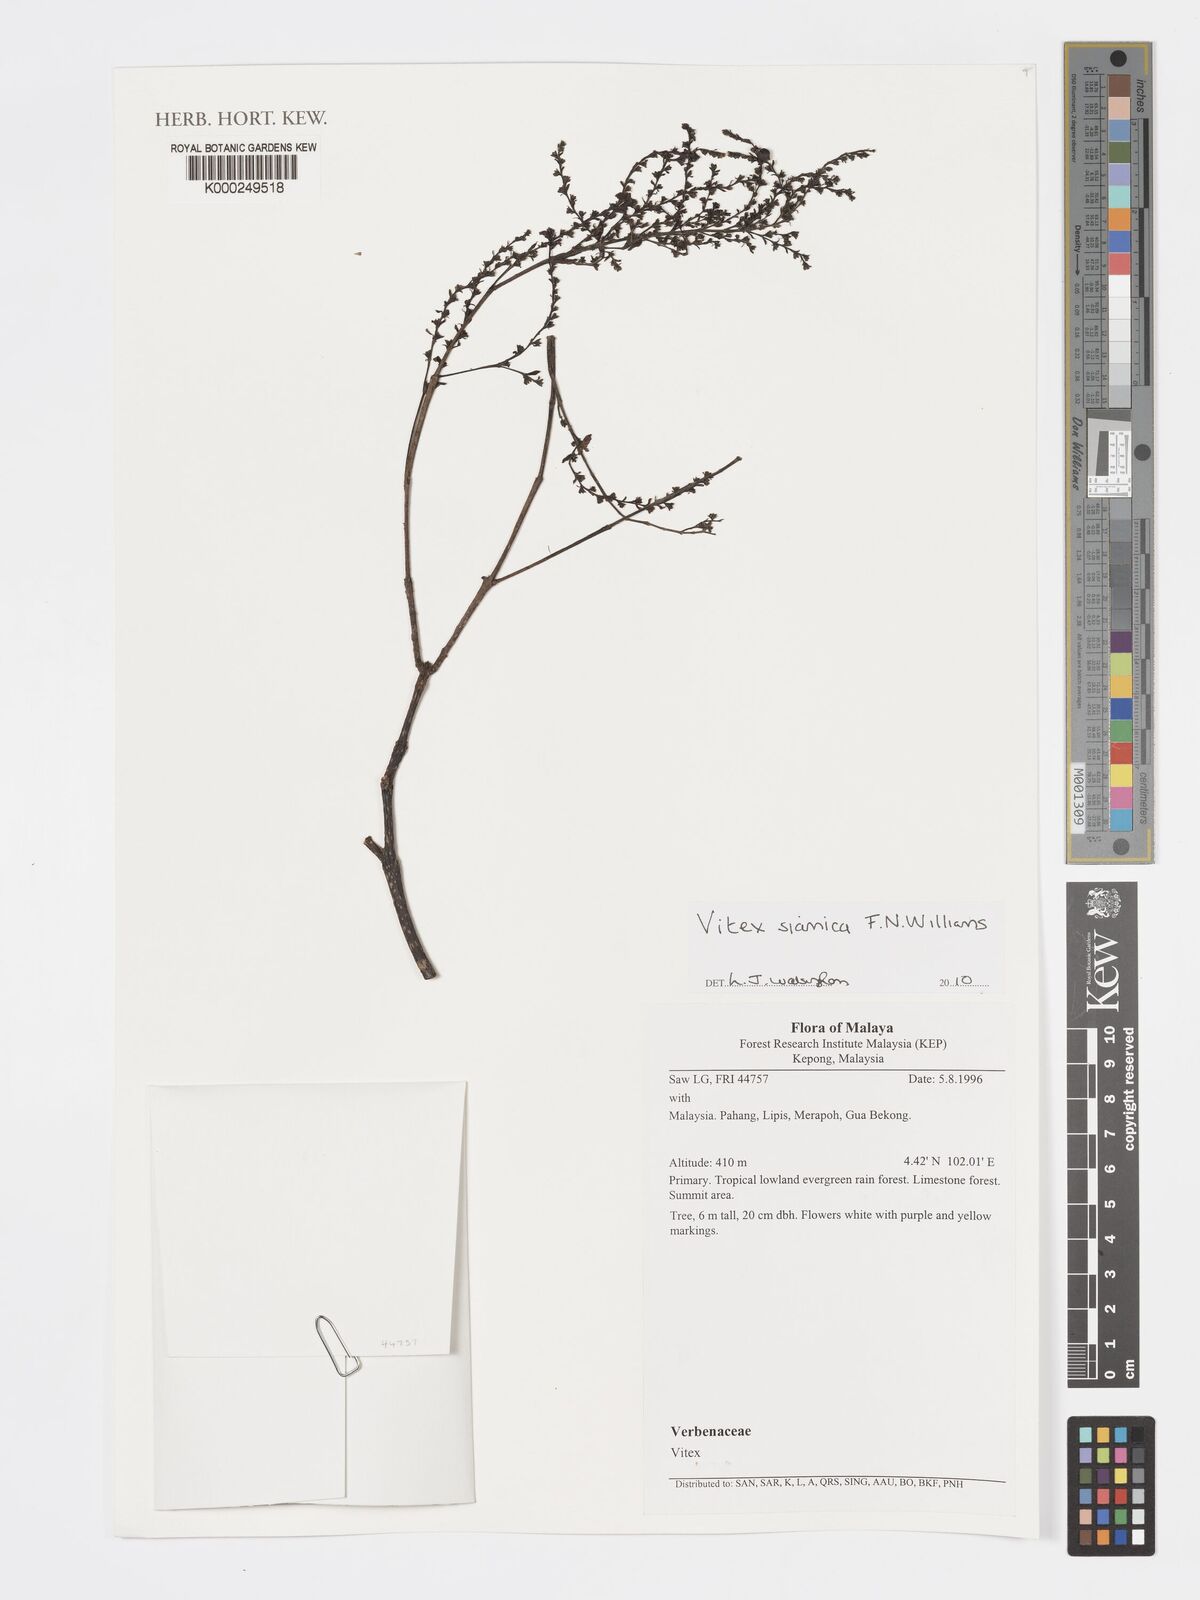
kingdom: Plantae
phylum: Tracheophyta
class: Magnoliopsida
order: Lamiales
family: Lamiaceae
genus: Vitex
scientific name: Vitex siamica
